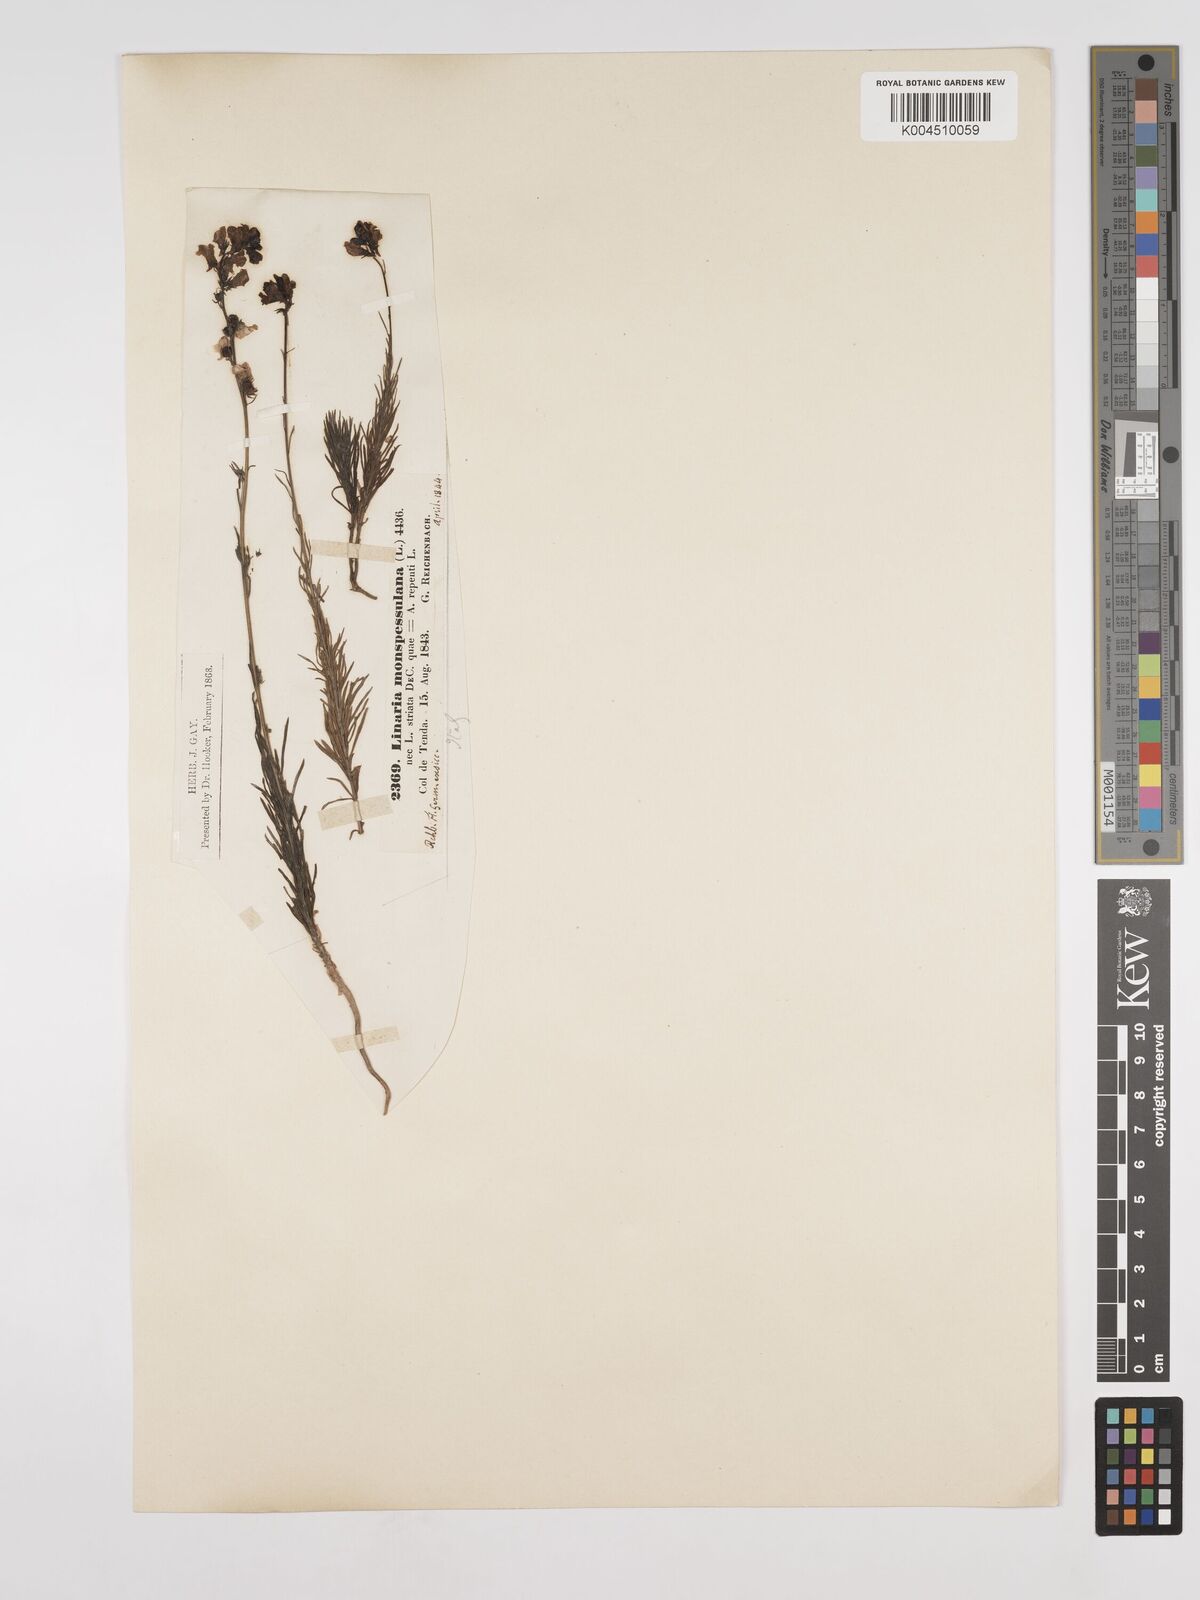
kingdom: Plantae
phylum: Tracheophyta
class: Magnoliopsida
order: Lamiales
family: Plantaginaceae
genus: Linaria
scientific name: Linaria repens
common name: Pale toadflax
